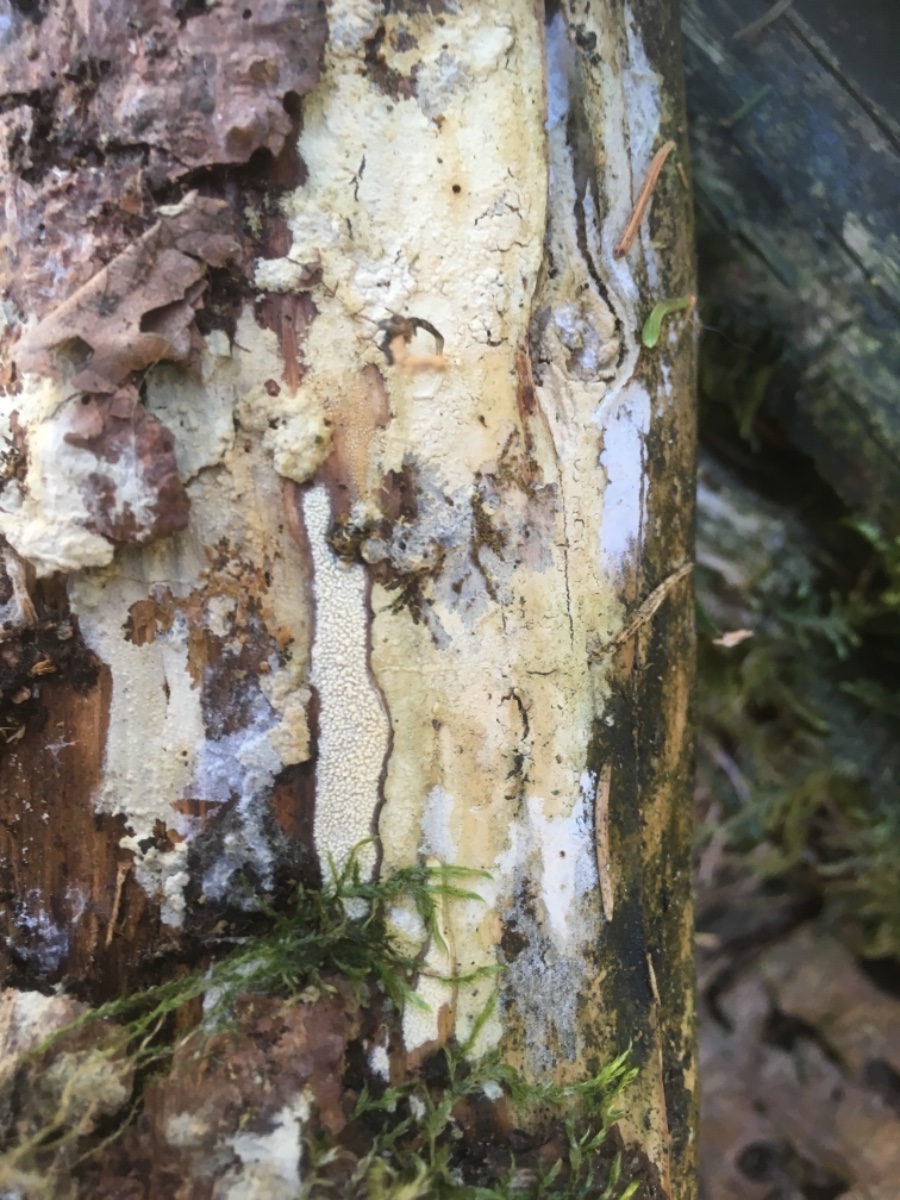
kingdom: Fungi
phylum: Basidiomycota
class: Agaricomycetes
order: Corticiales
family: Corticiaceae
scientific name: Corticiaceae
